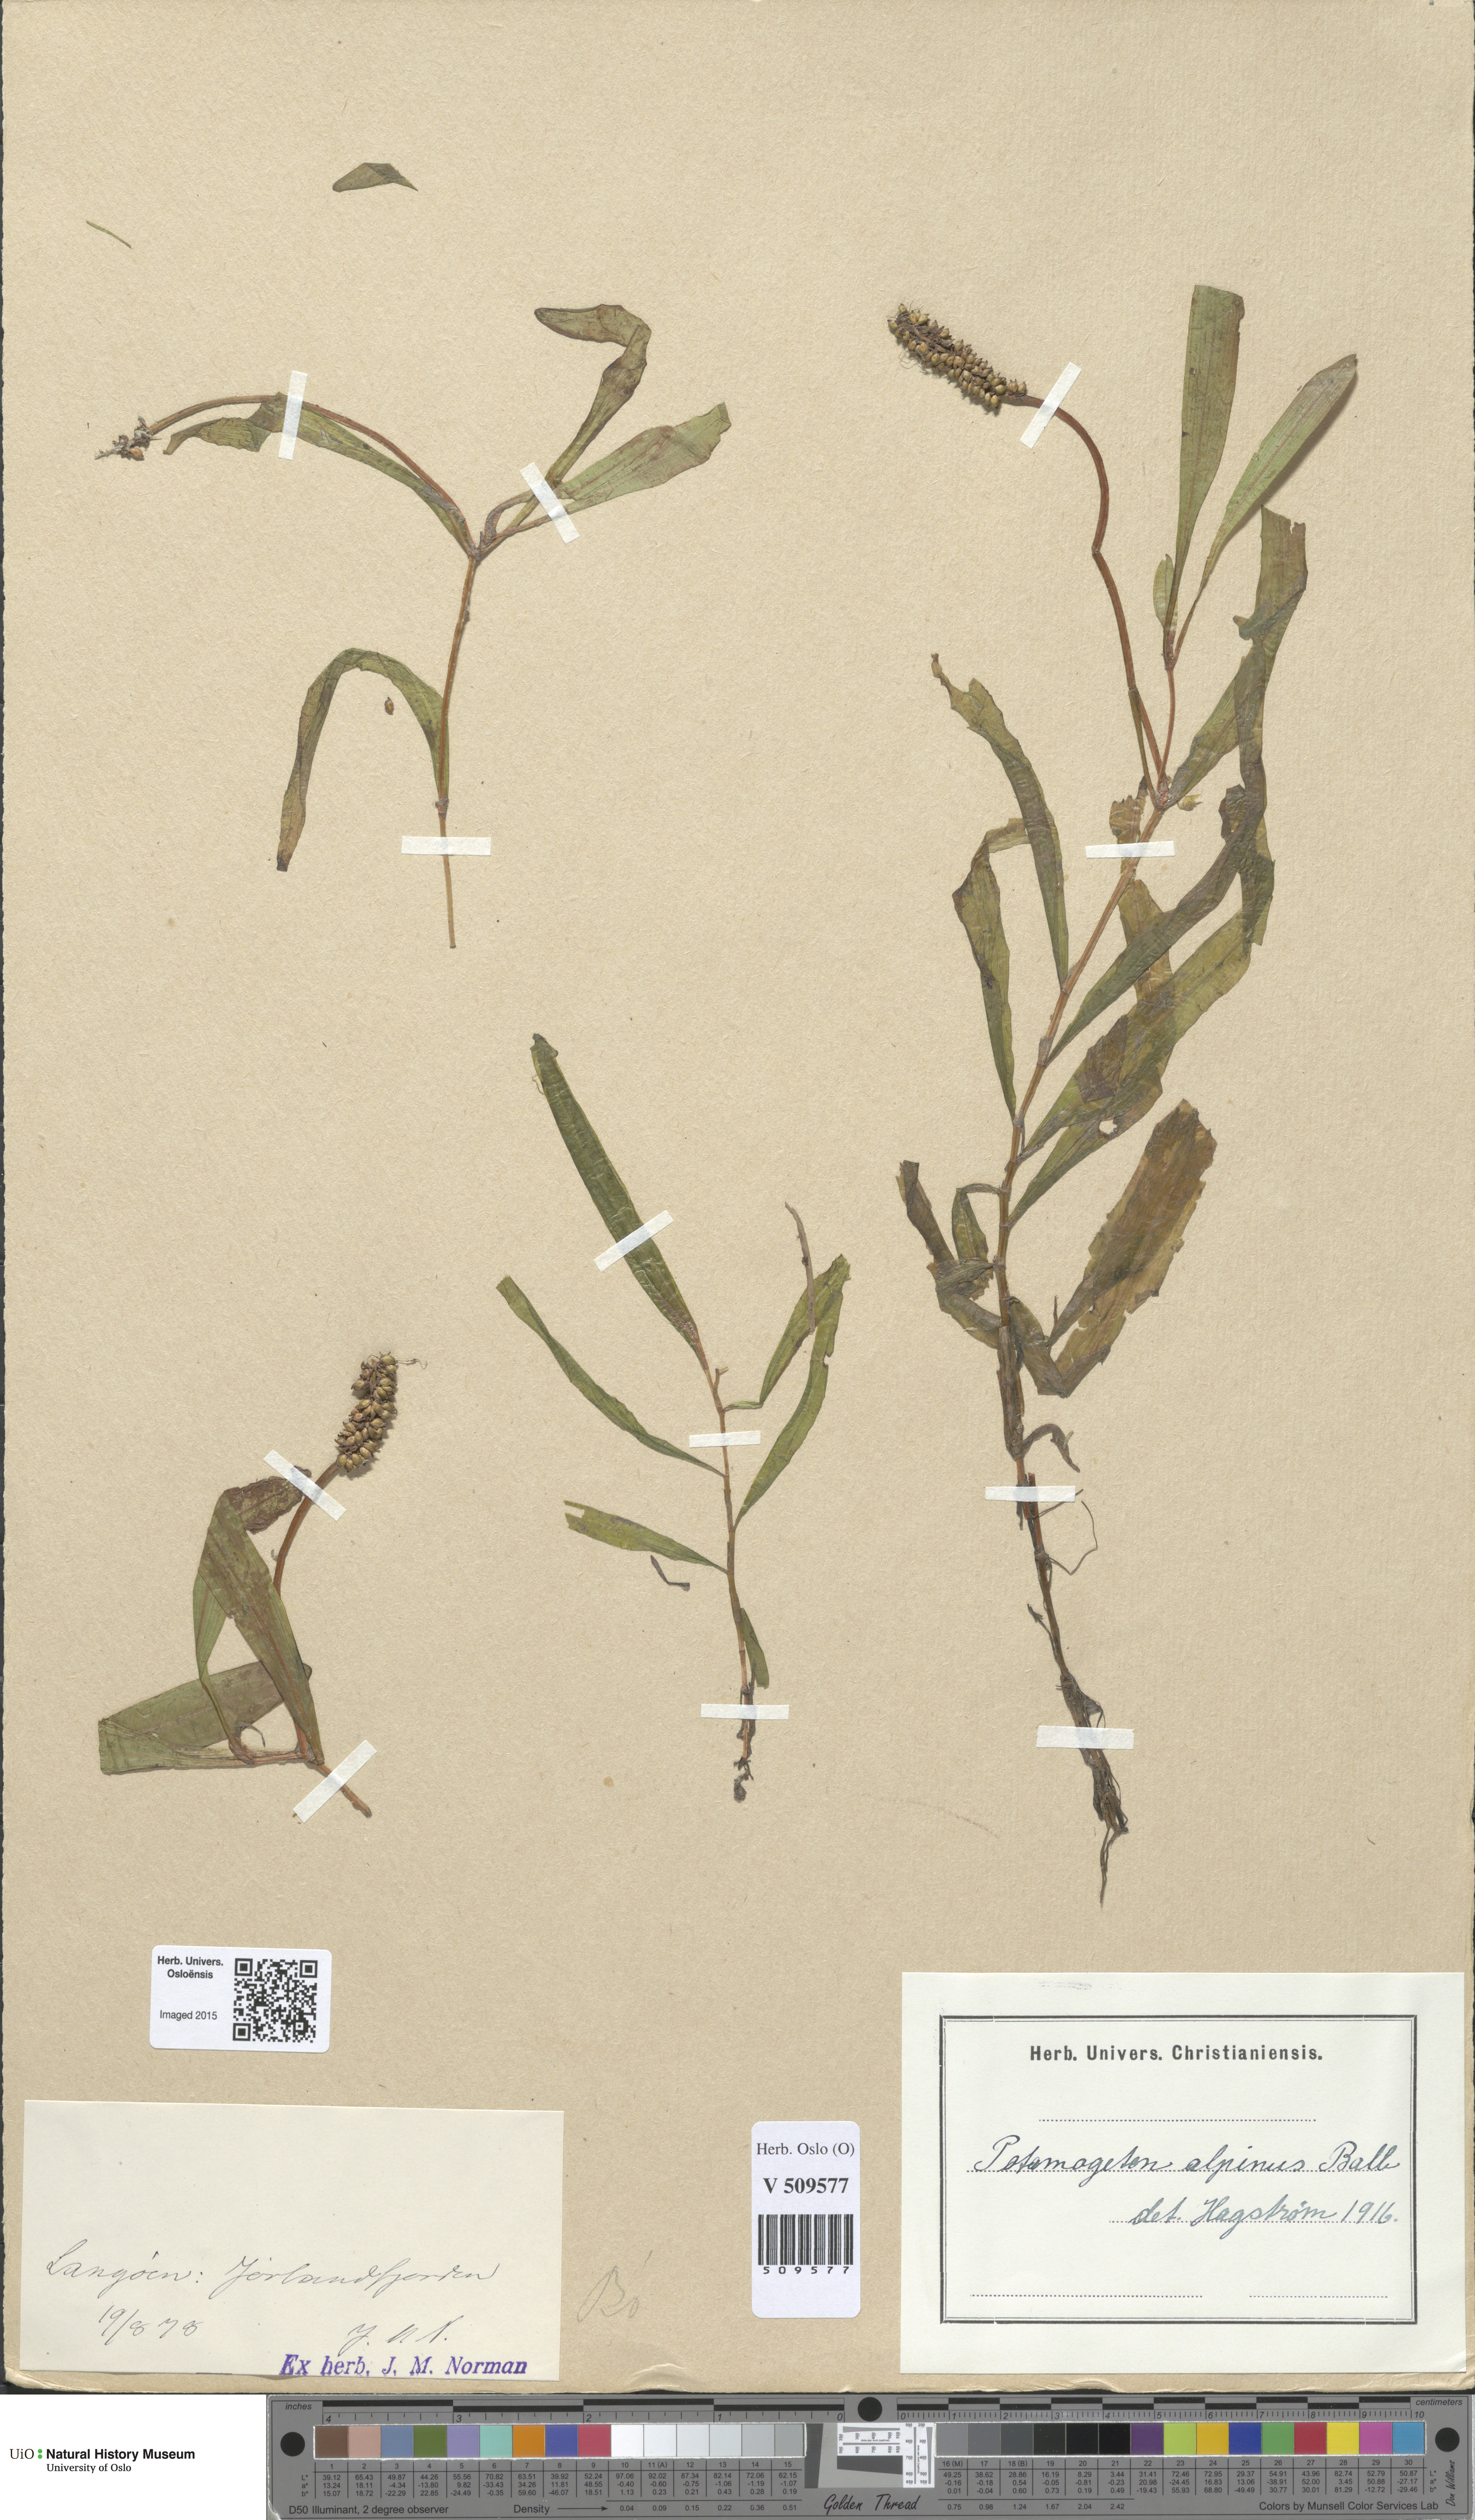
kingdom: Plantae
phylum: Tracheophyta
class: Liliopsida
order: Alismatales
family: Potamogetonaceae
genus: Potamogeton
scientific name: Potamogeton alpinus
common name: Red pondweed
